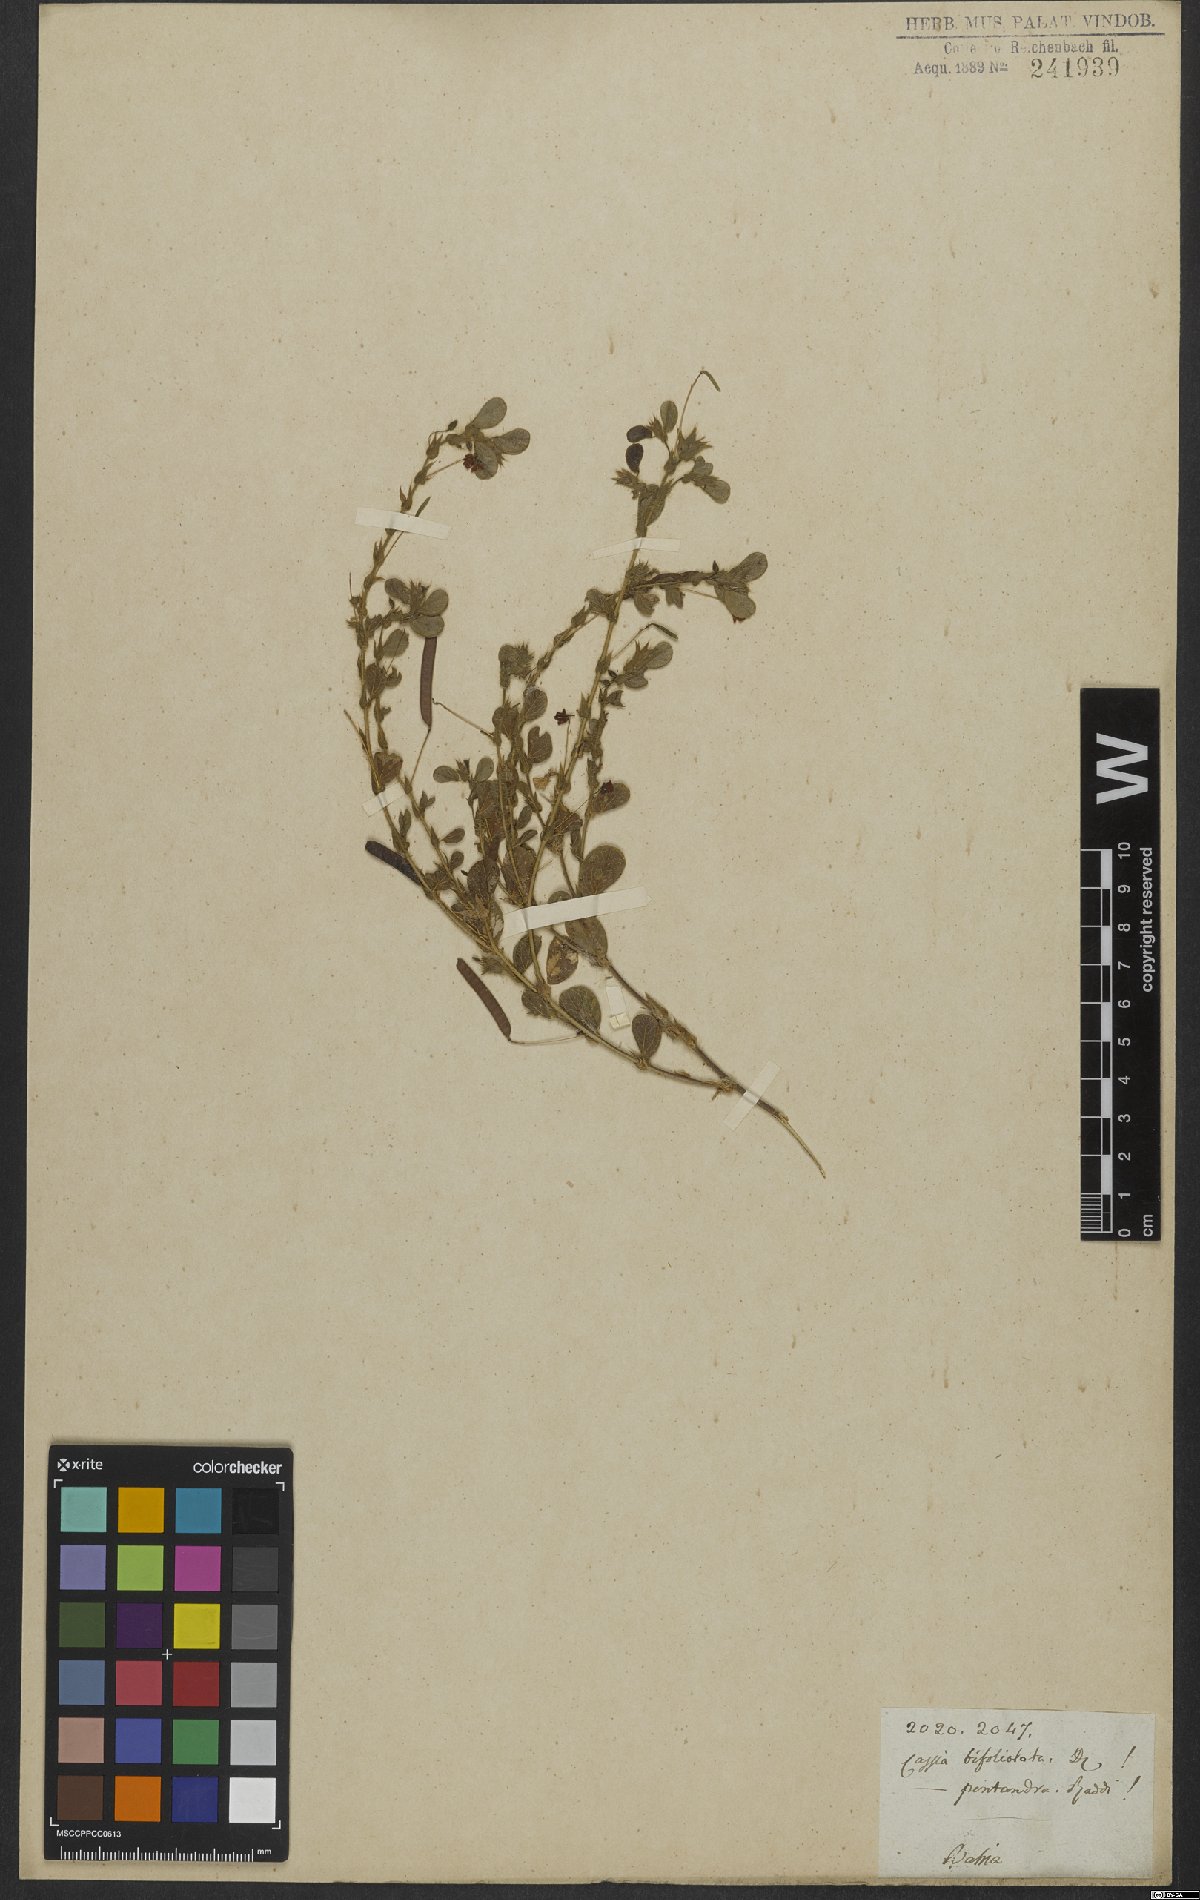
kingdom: Plantae
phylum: Tracheophyta
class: Magnoliopsida
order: Fabales
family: Fabaceae
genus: Chamaecrista
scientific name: Chamaecrista rotundifolia
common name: Round-leaf cassia
